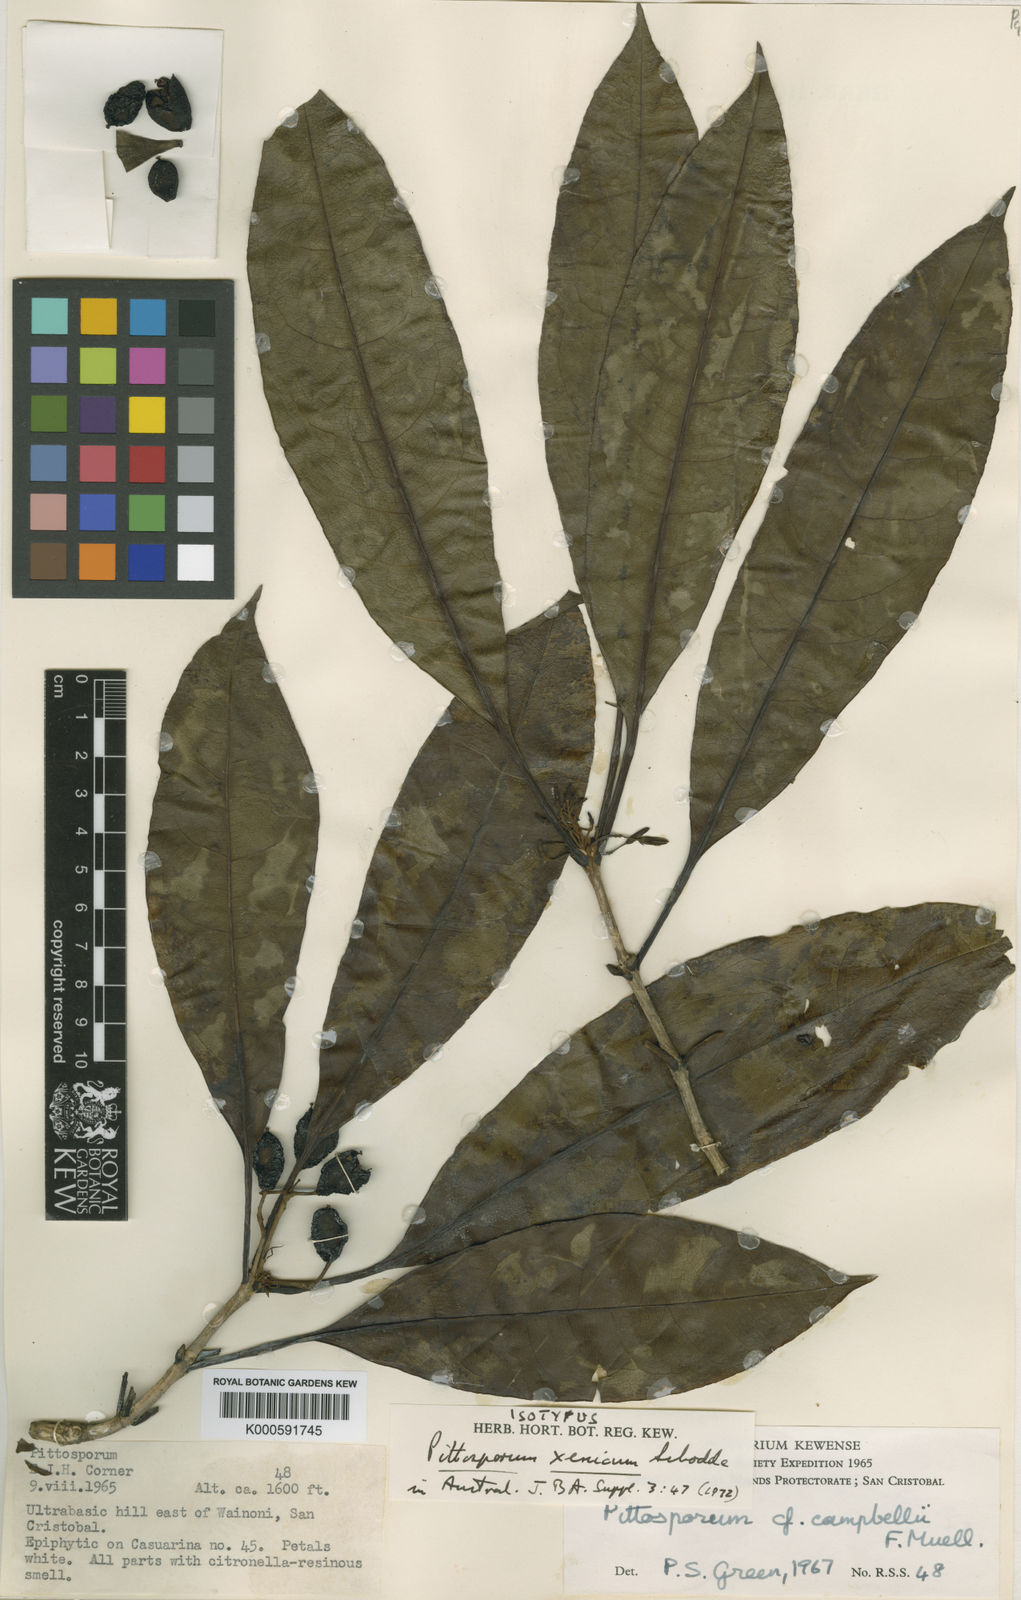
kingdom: Plantae
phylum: Tracheophyta
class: Magnoliopsida
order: Apiales
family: Pittosporaceae
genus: Pittosporum
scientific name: Pittosporum xenicum
